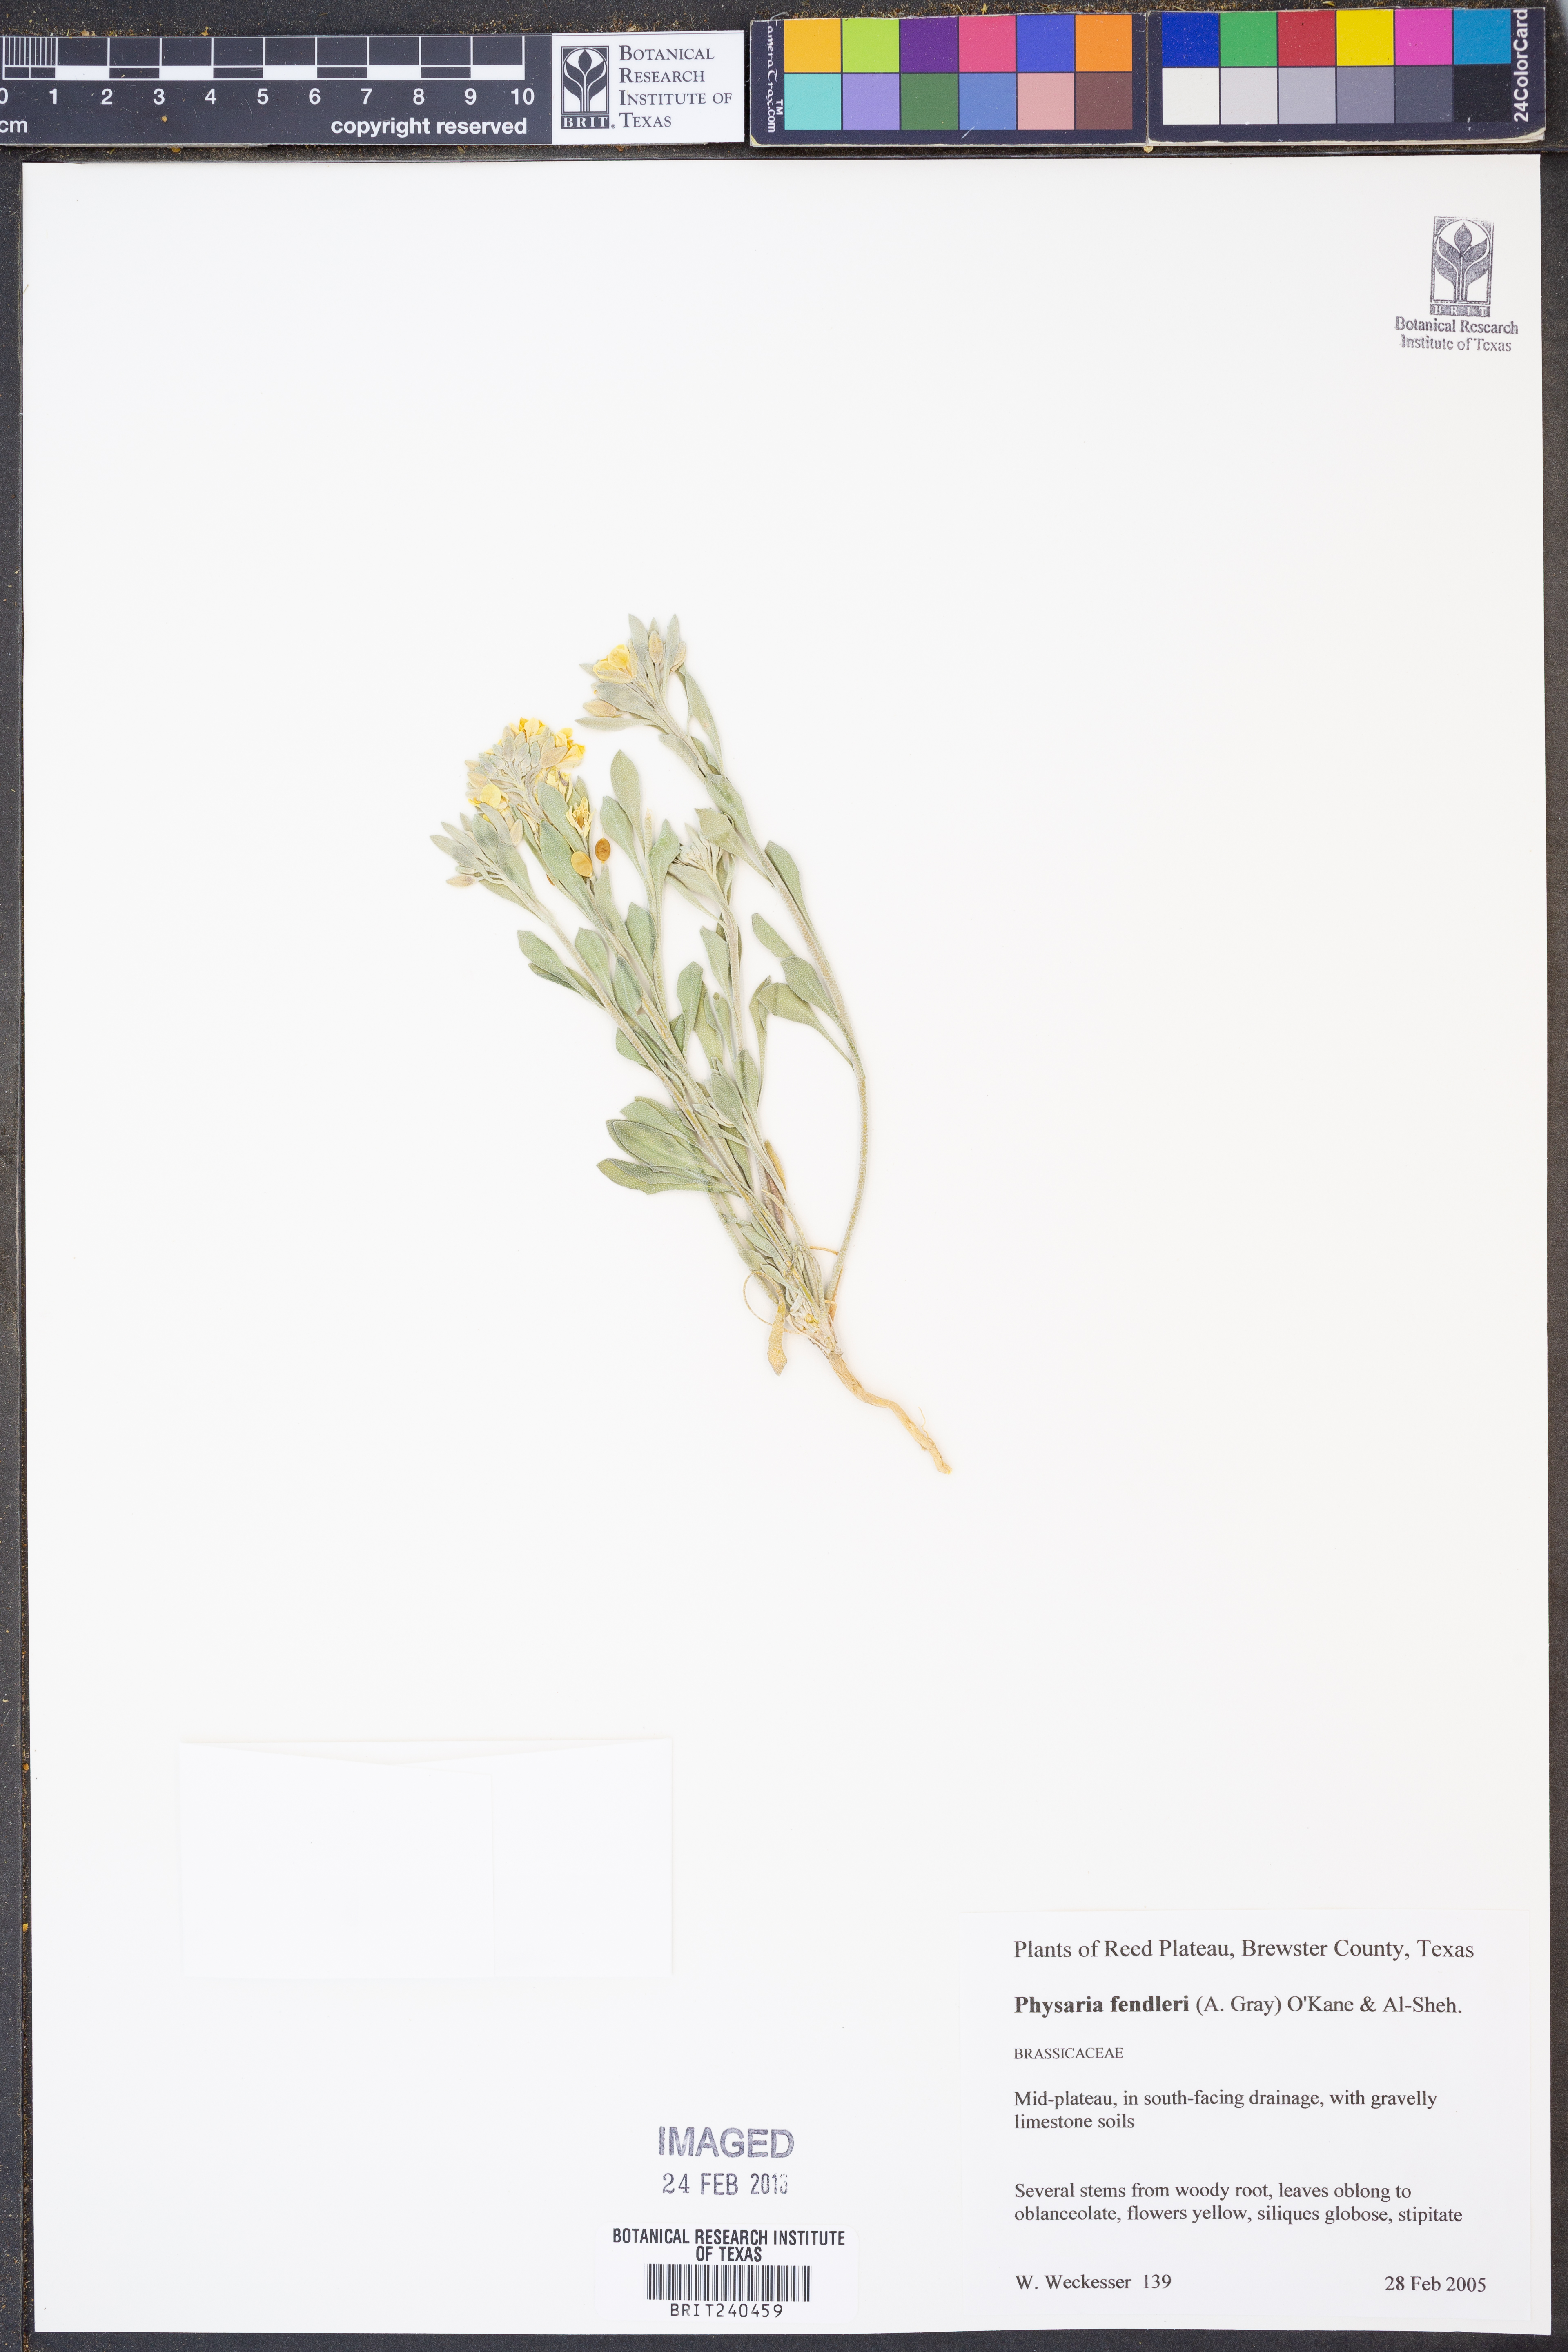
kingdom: Plantae
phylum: Tracheophyta
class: Magnoliopsida
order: Brassicales
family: Brassicaceae
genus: Physaria
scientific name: Physaria fendleri
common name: Fendler's bladderpod
